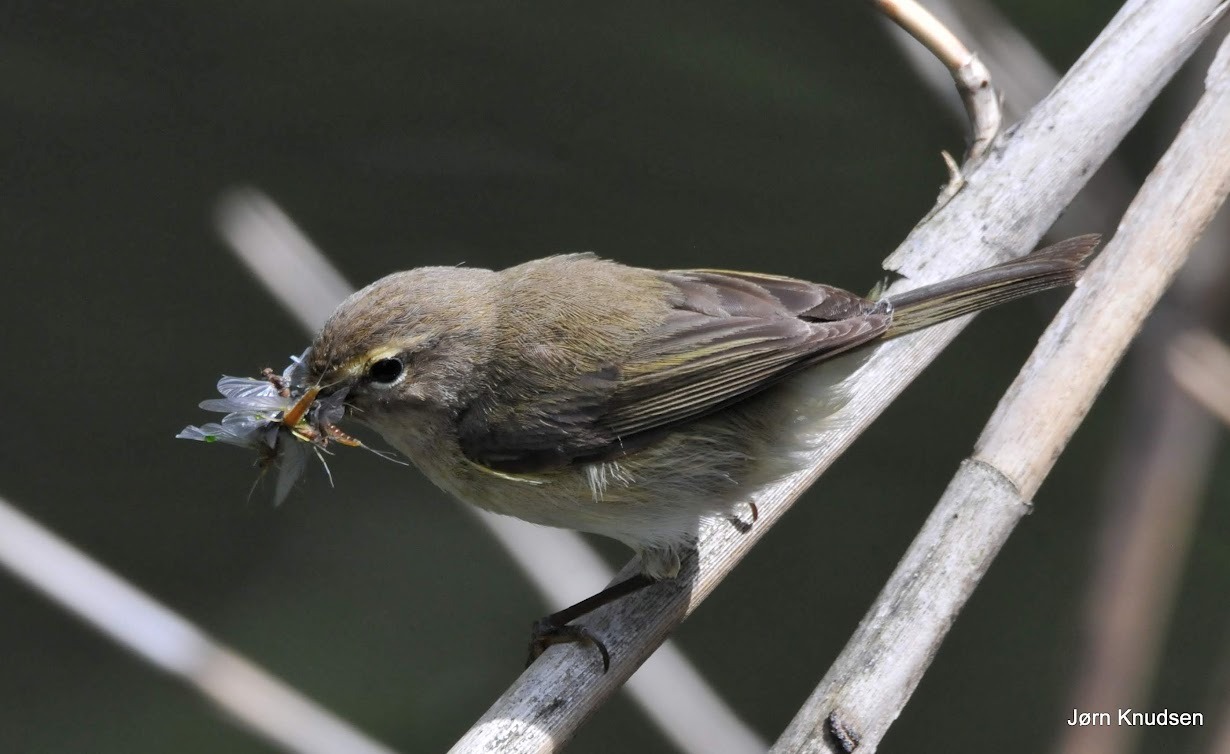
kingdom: Animalia
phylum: Chordata
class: Aves
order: Passeriformes
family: Phylloscopidae
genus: Phylloscopus
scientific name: Phylloscopus collybita
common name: Gransanger
